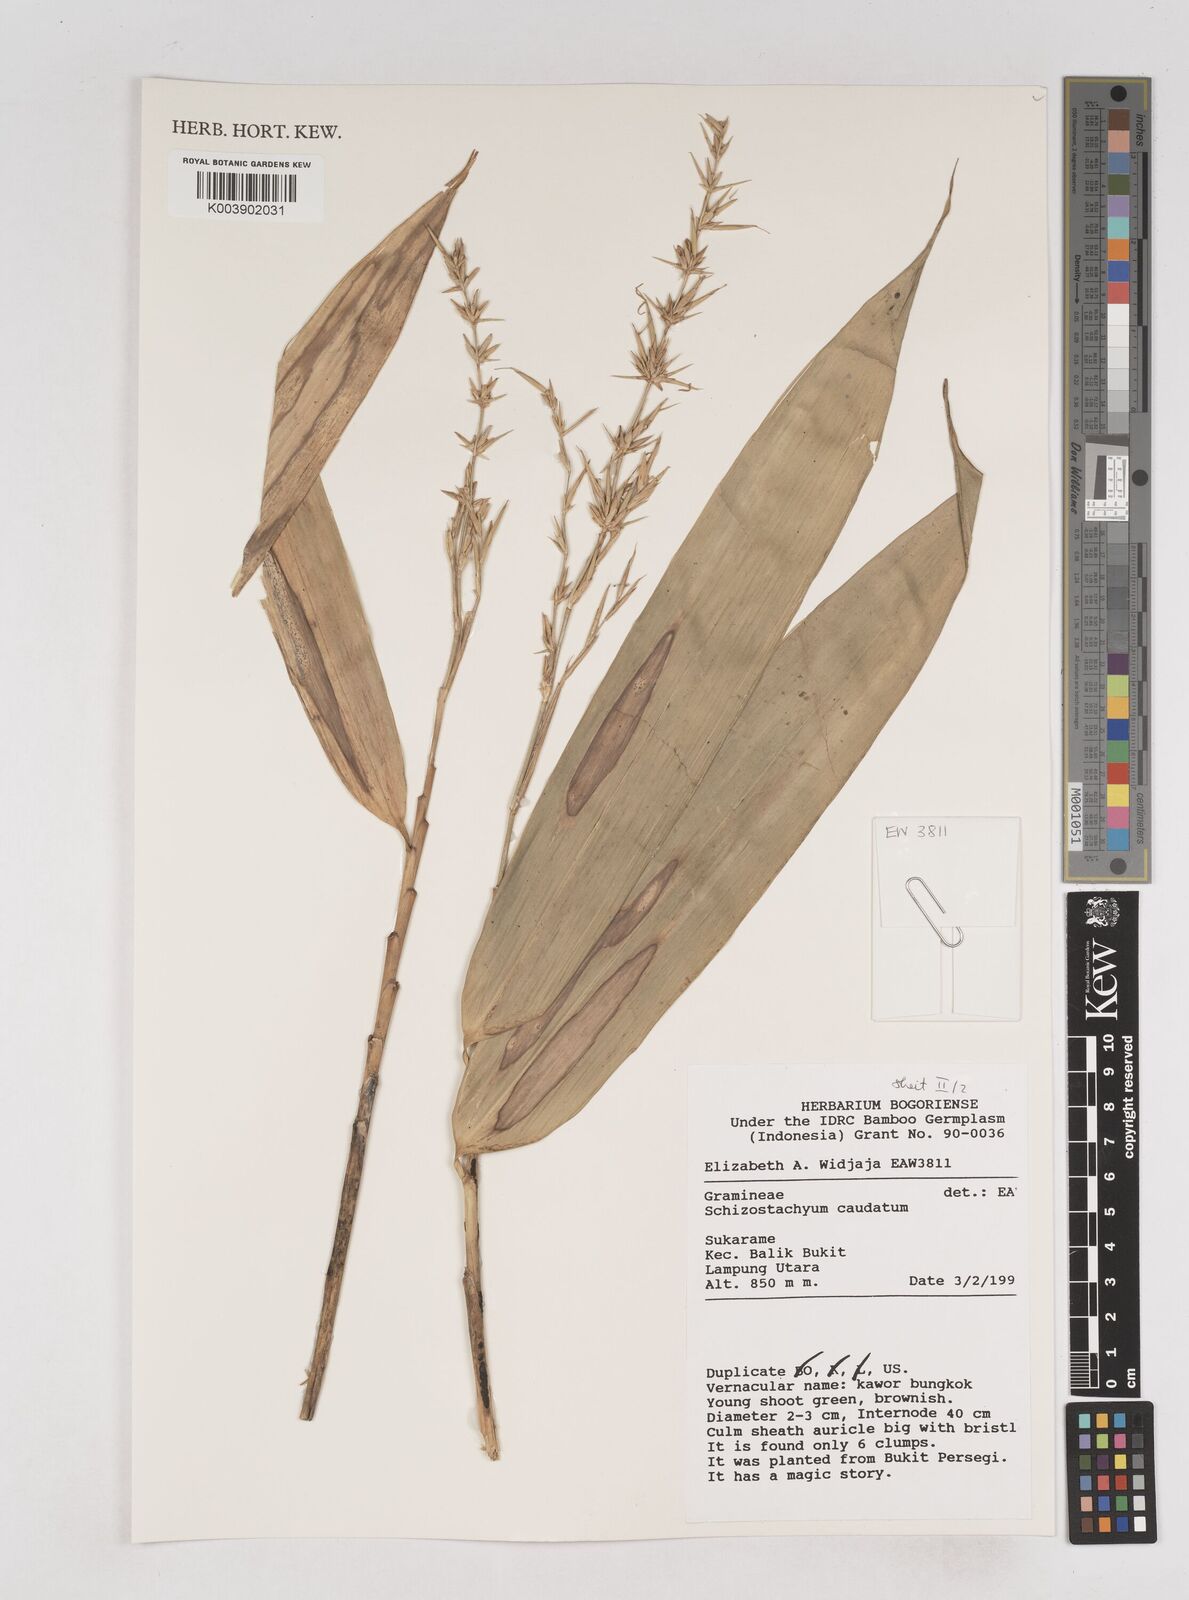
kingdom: Plantae
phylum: Tracheophyta
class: Liliopsida
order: Poales
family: Poaceae
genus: Schizostachyum
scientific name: Schizostachyum caudatum
